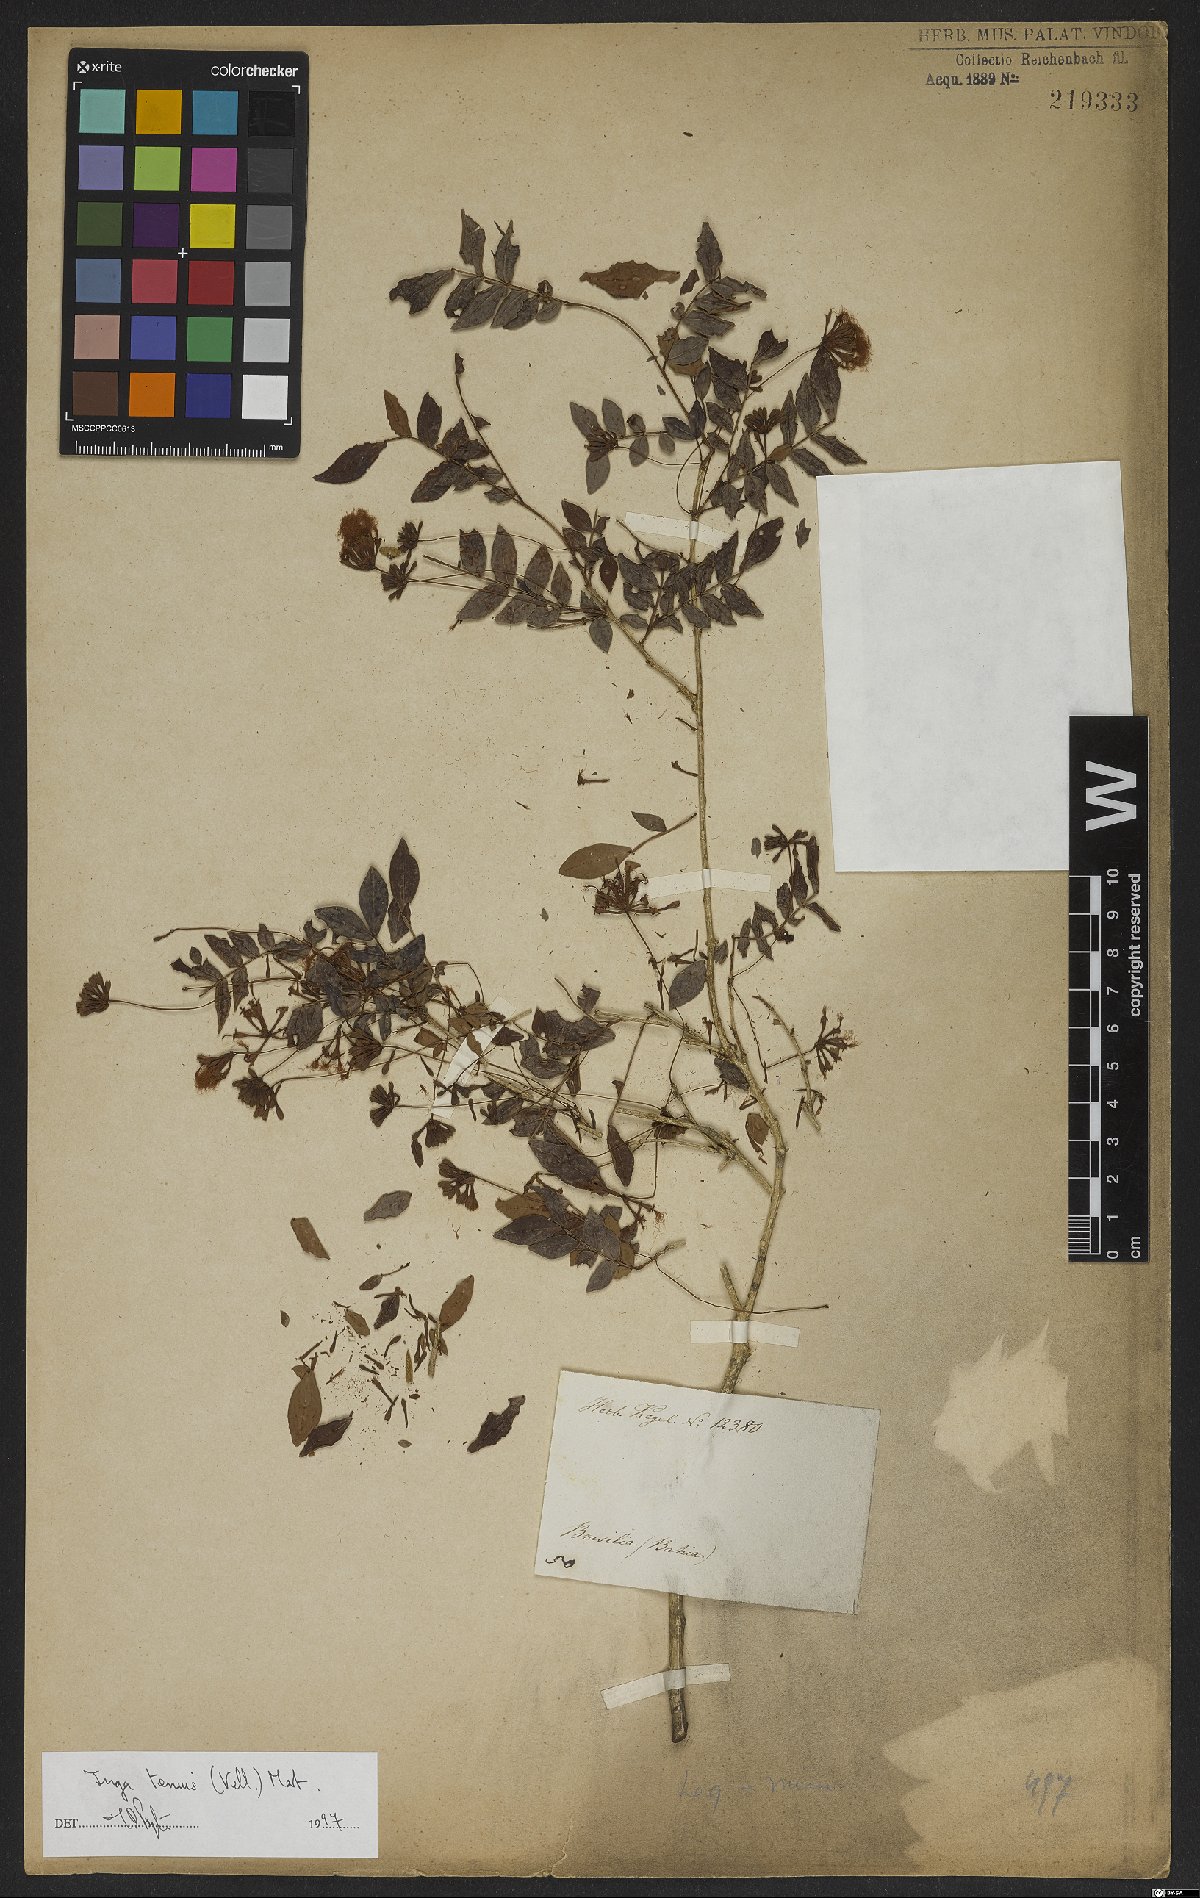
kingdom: Plantae
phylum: Tracheophyta
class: Magnoliopsida
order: Fabales
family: Fabaceae
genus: Inga
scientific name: Inga tenuis
